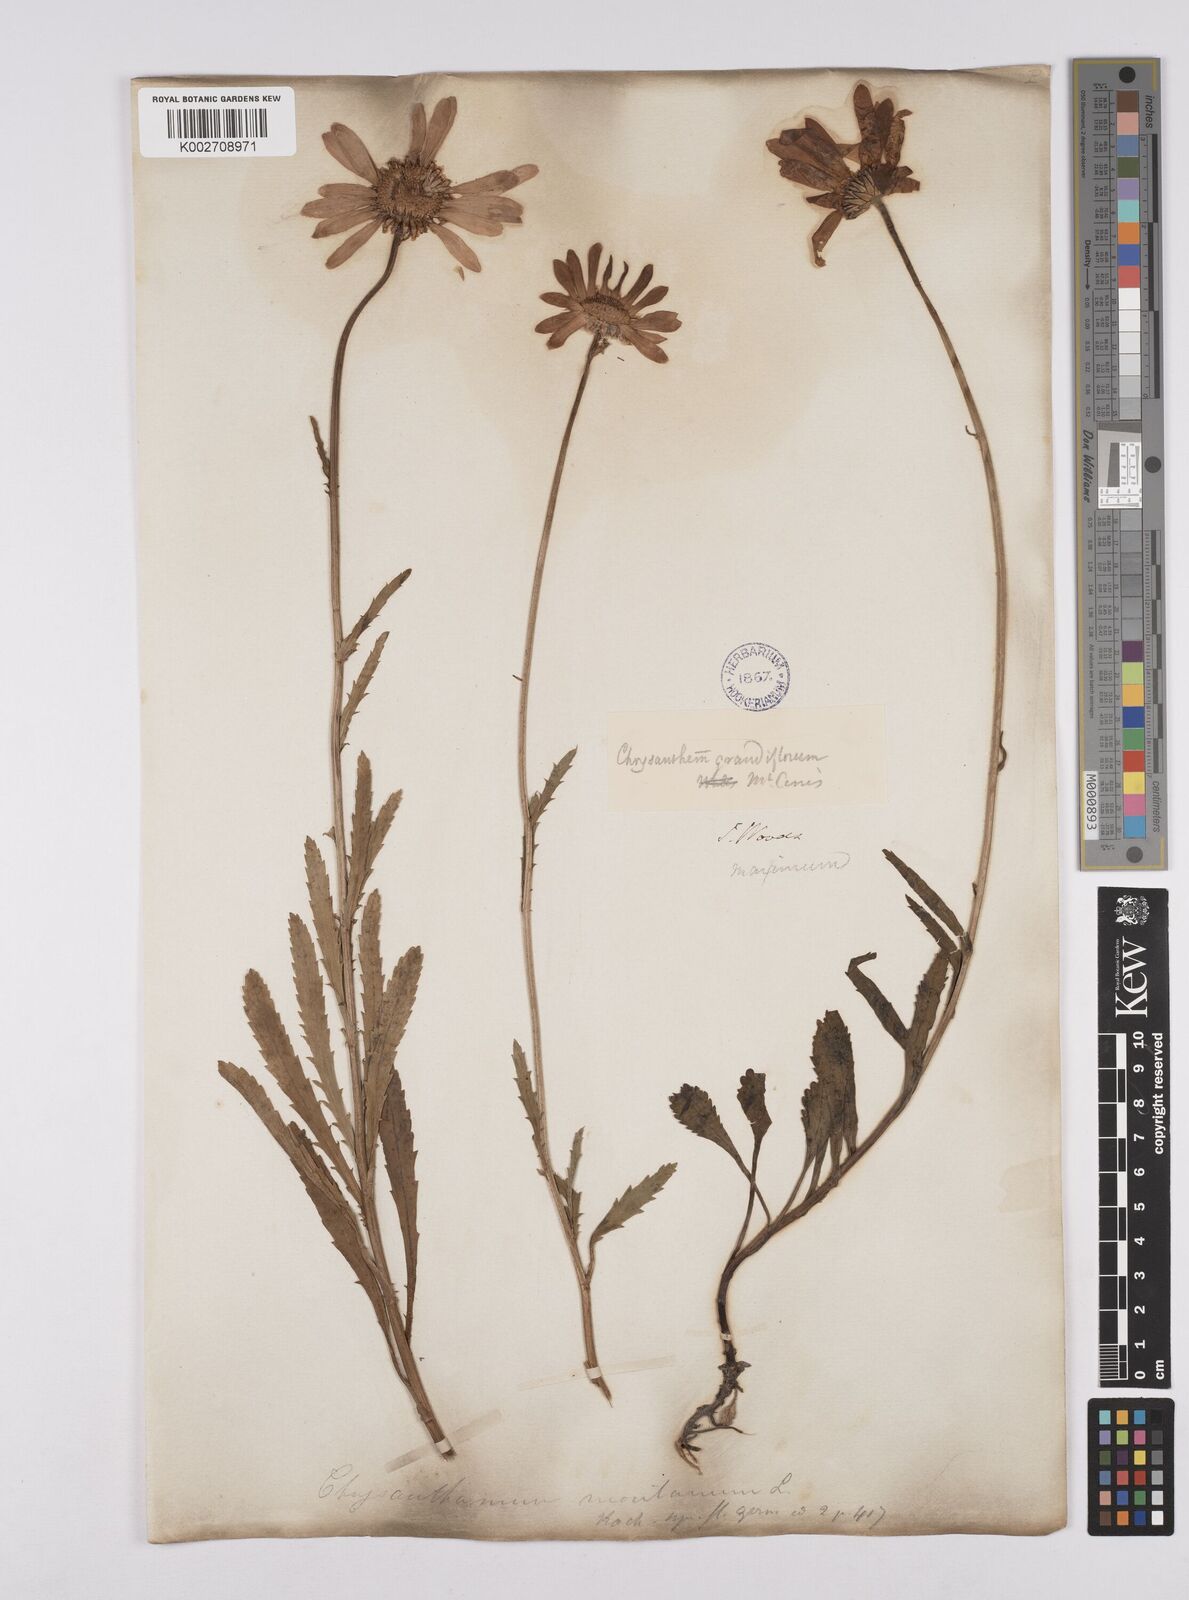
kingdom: Plantae
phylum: Tracheophyta
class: Magnoliopsida
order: Asterales
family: Asteraceae
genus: Leucanthemum
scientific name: Leucanthemum vulgare
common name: Oxeye daisy
